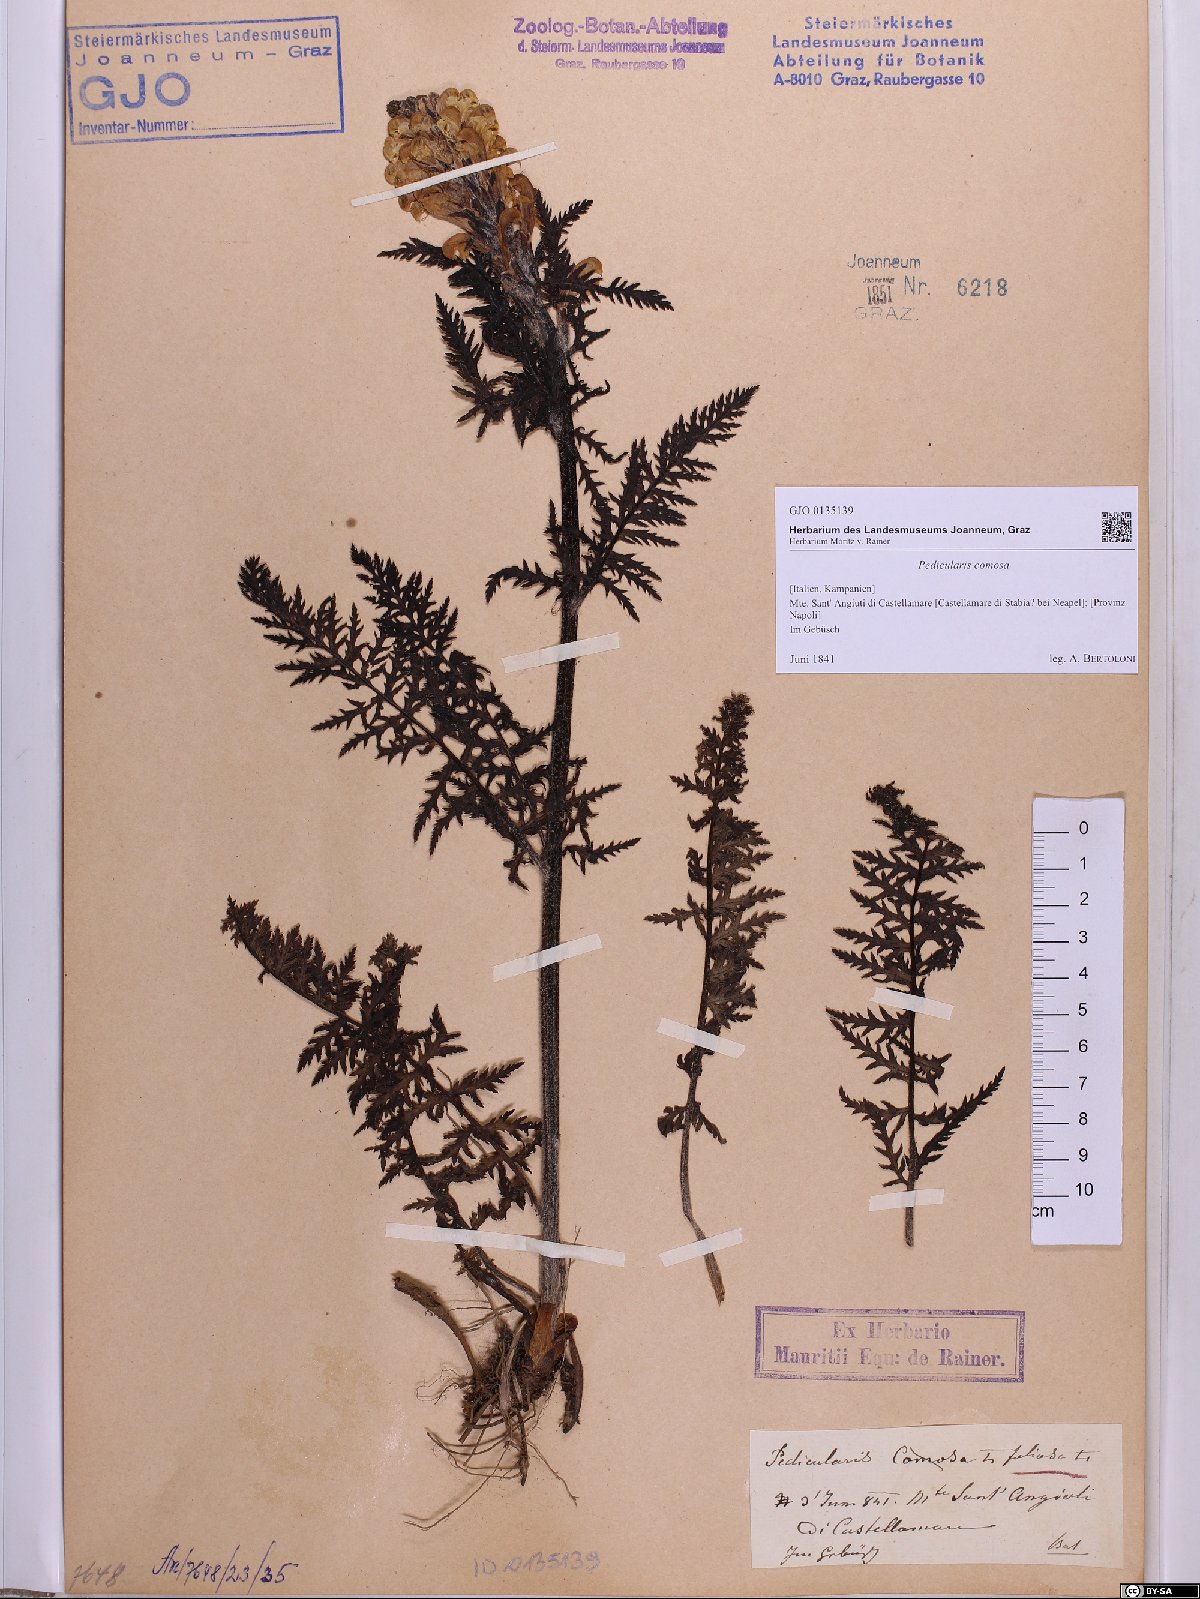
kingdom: Plantae
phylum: Tracheophyta
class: Magnoliopsida
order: Lamiales
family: Orobanchaceae
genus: Pedicularis
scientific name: Pedicularis comosa
